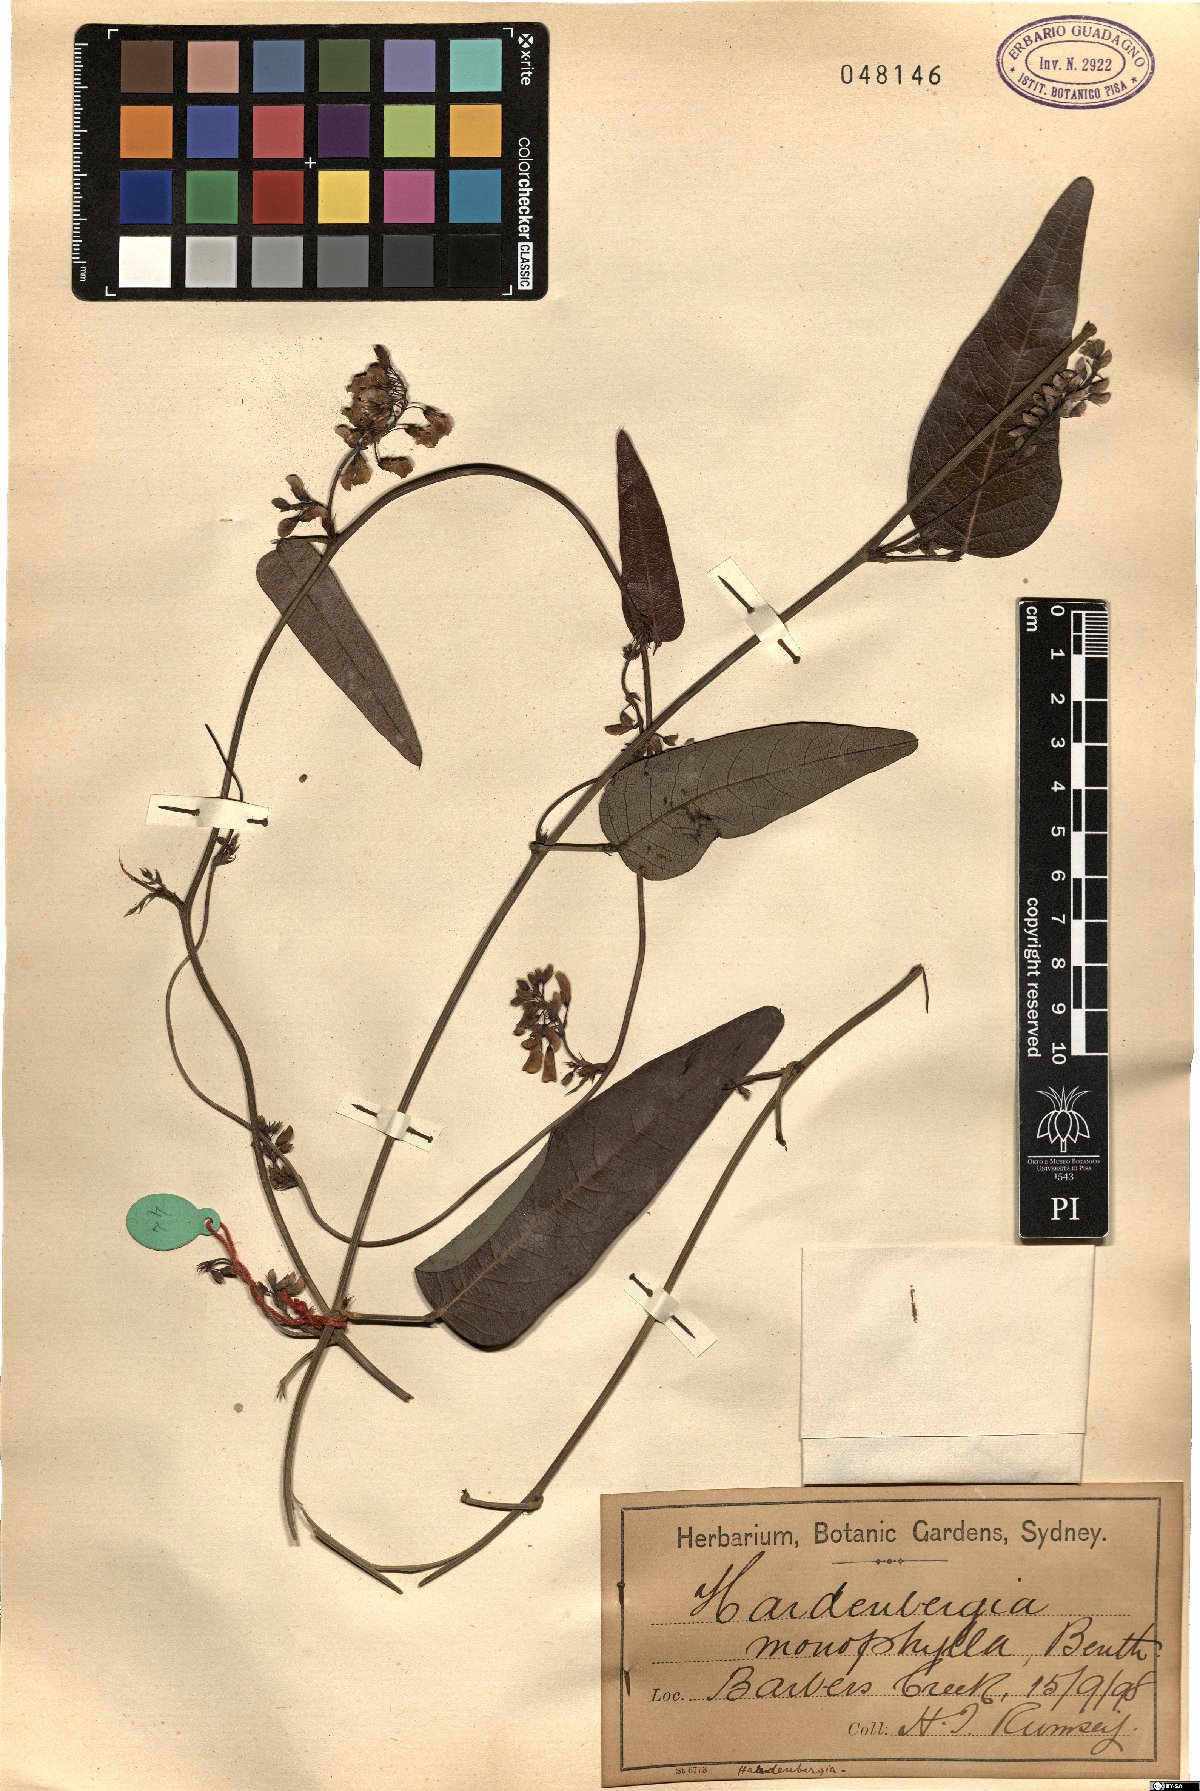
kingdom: Plantae
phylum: Tracheophyta
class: Magnoliopsida
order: Fabales
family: Fabaceae
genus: Hardenbergia
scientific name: Hardenbergia violacea
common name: Coral-pea
